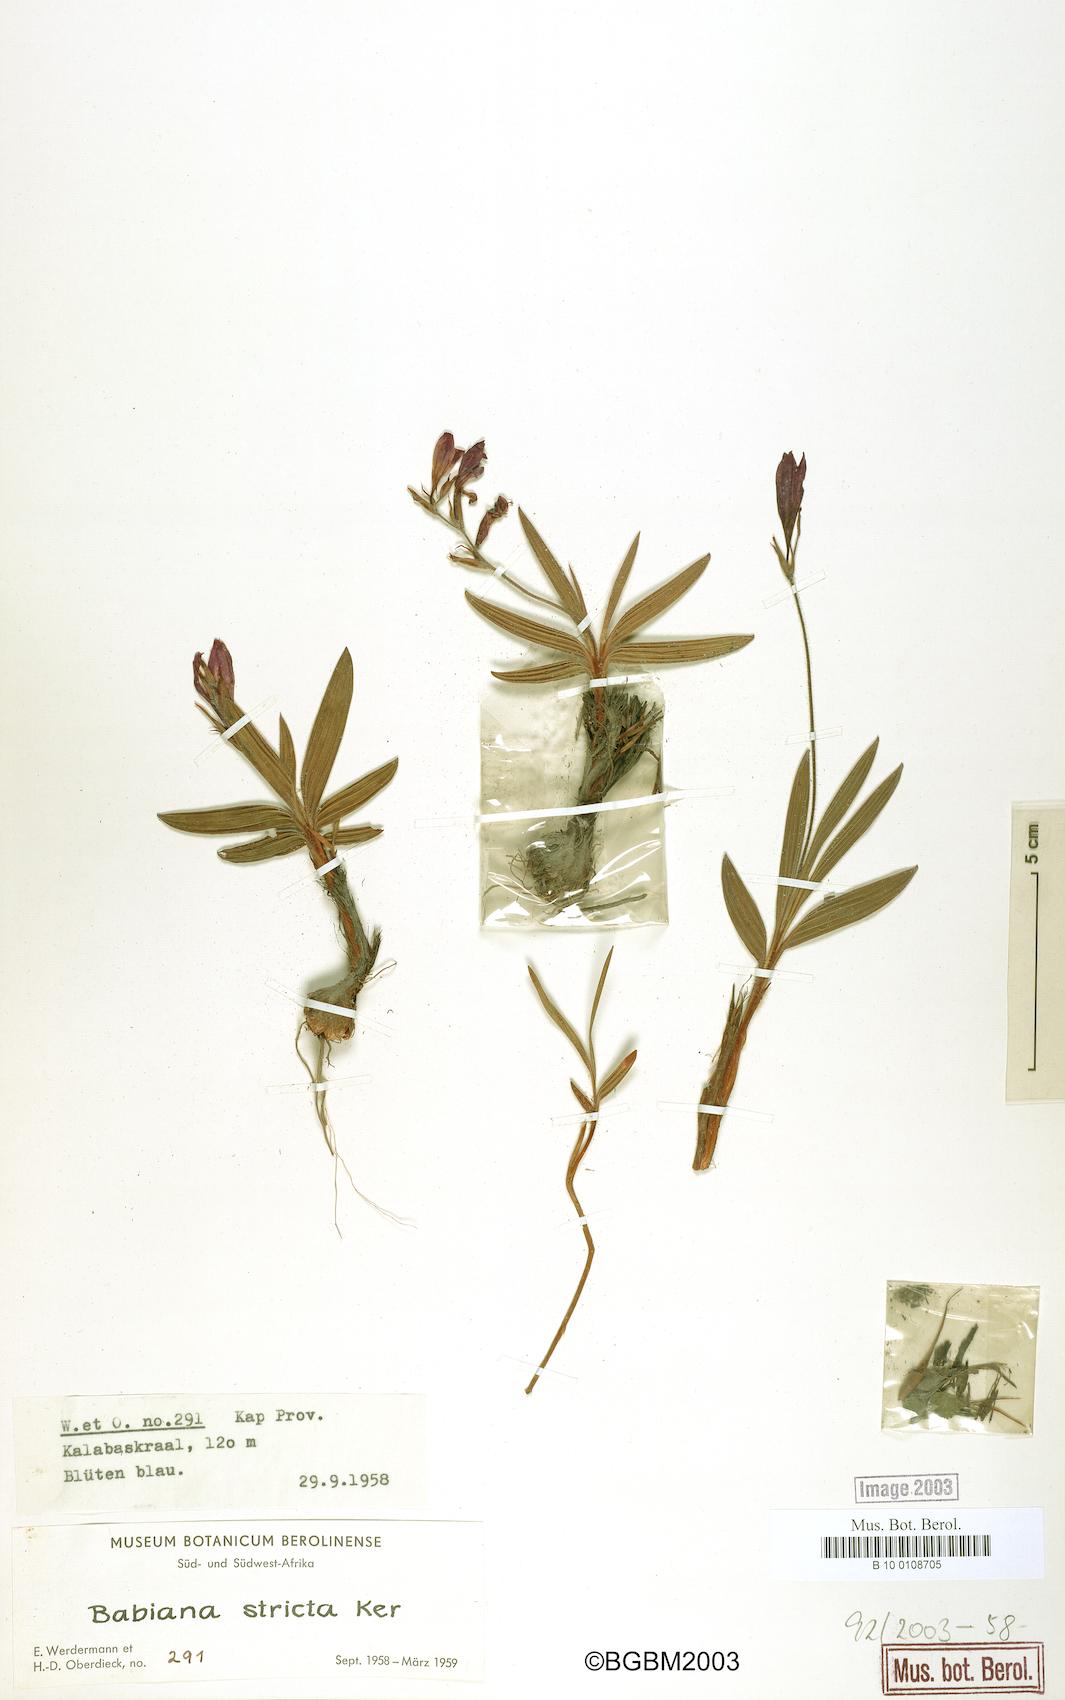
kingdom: Plantae
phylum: Tracheophyta
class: Liliopsida
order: Asparagales
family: Iridaceae
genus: Babiana
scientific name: Babiana nervosa
